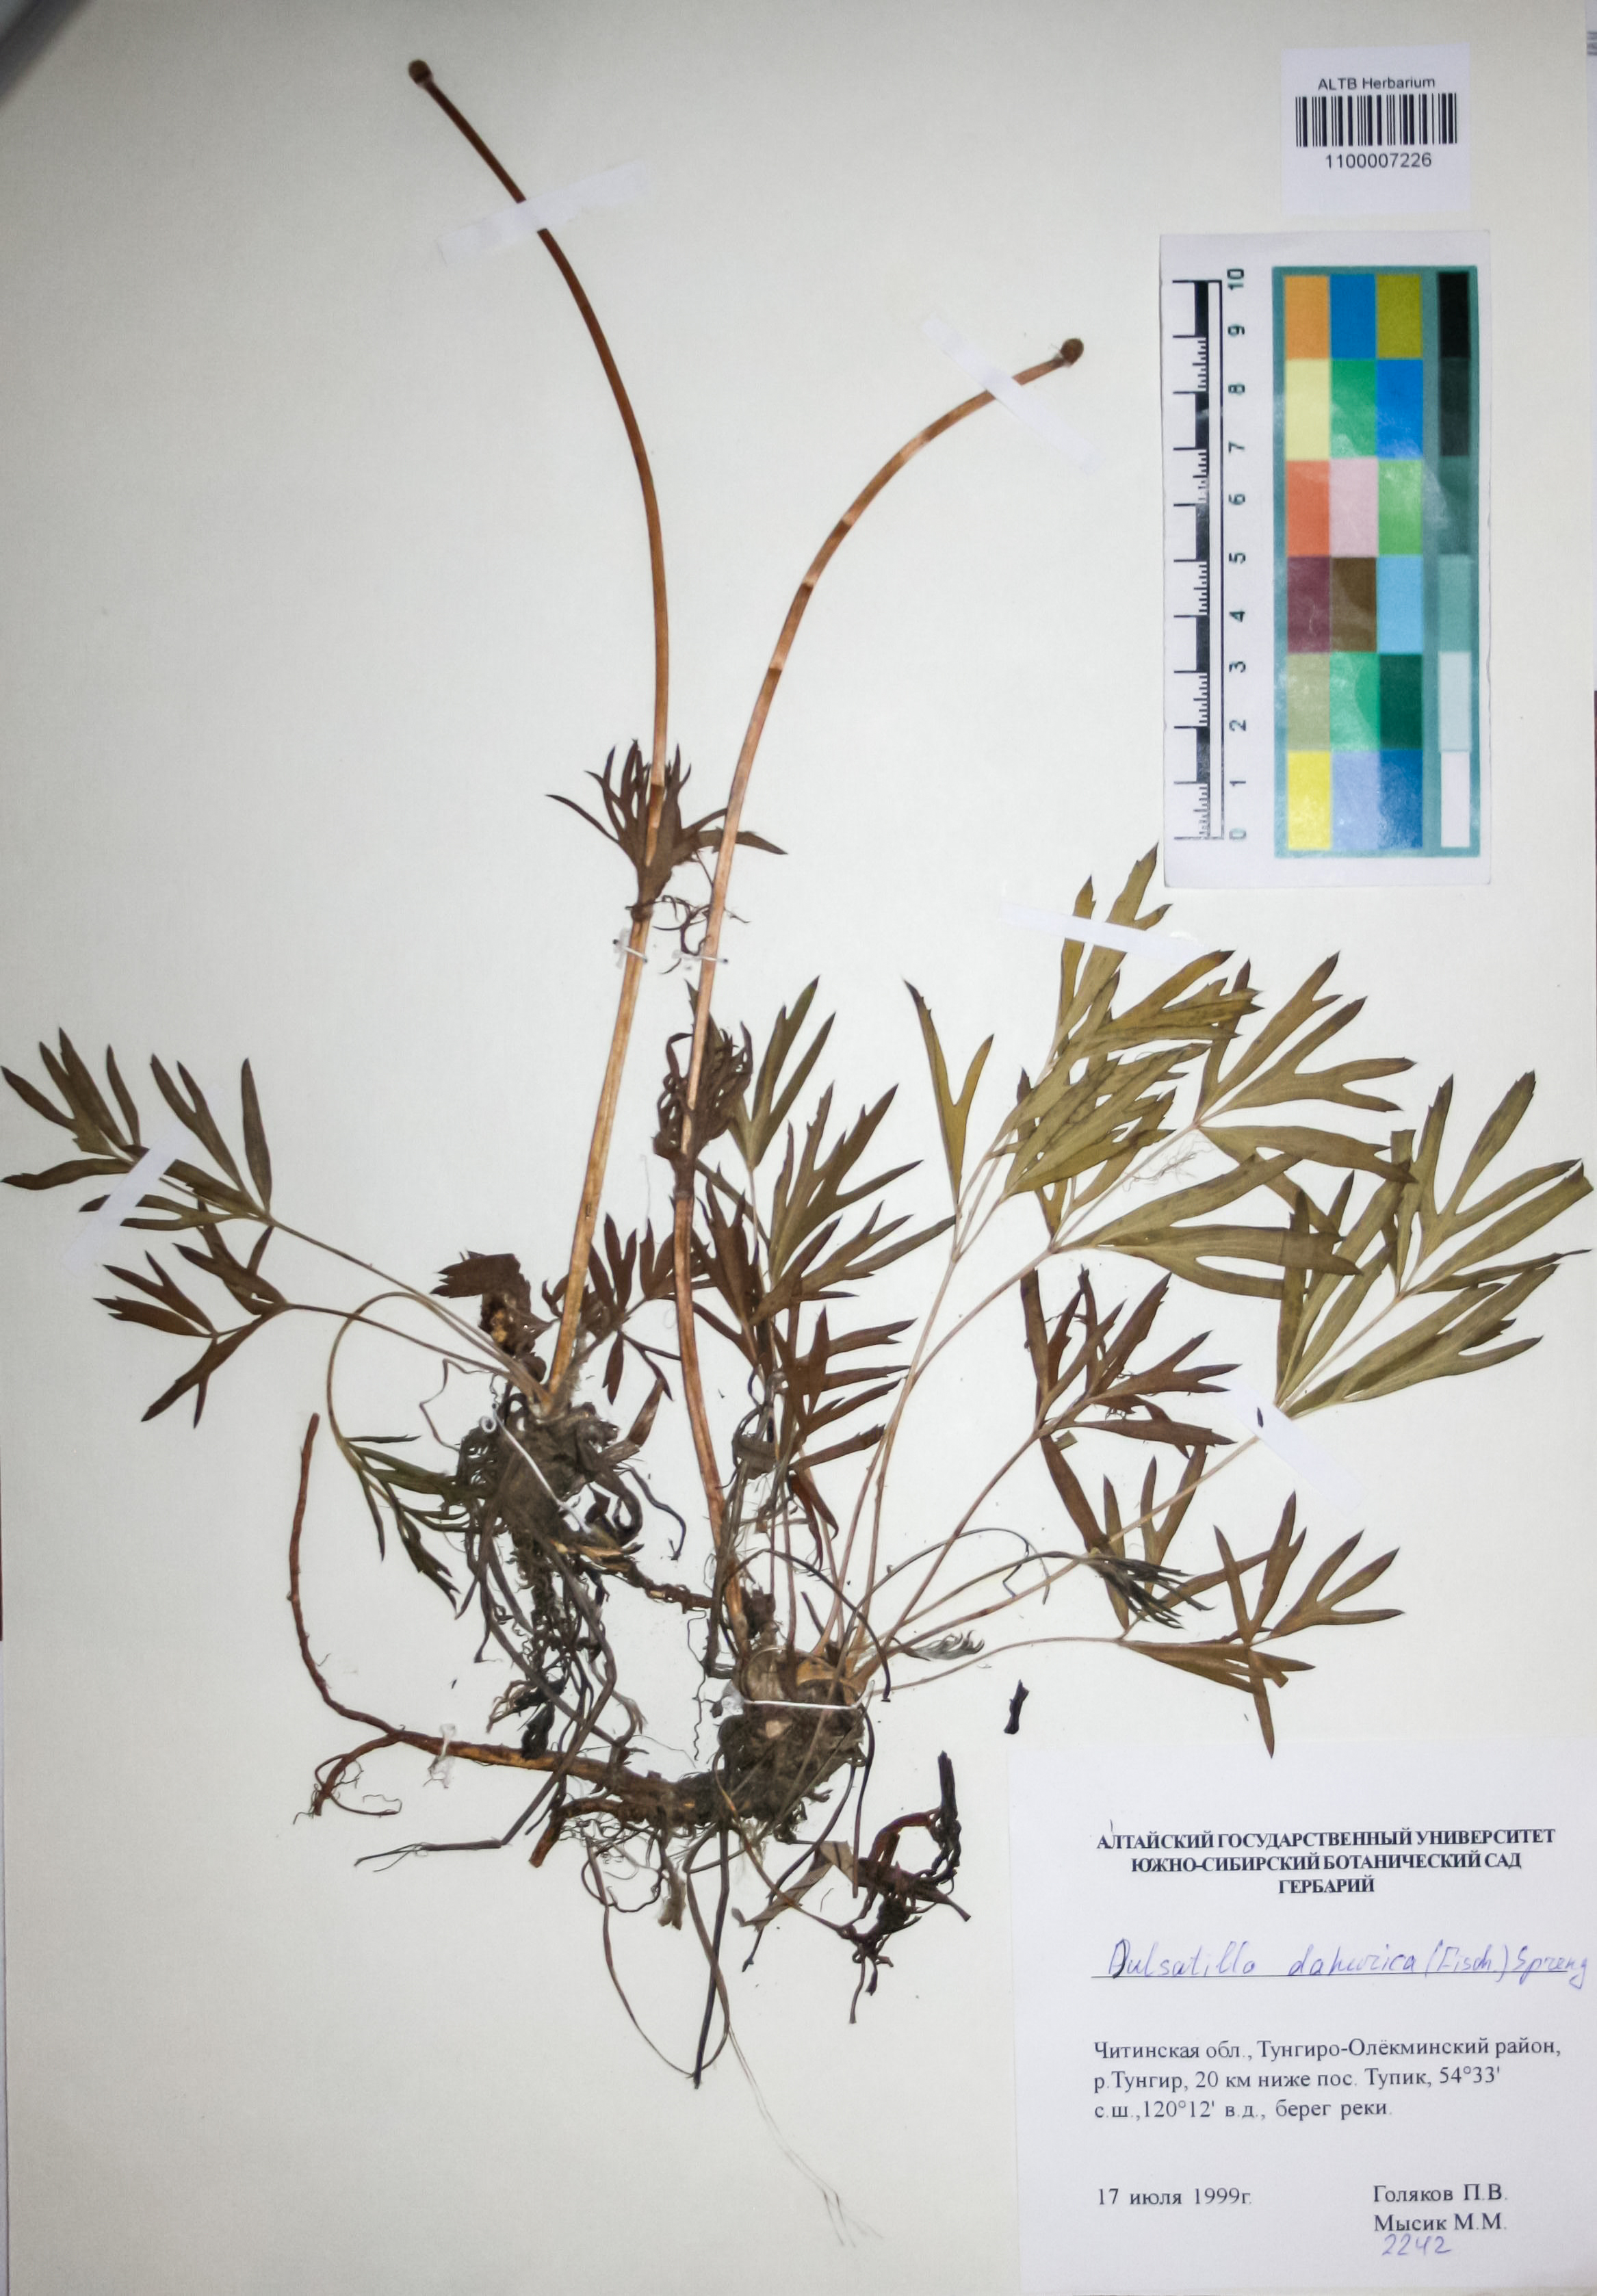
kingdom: Plantae
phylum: Tracheophyta
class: Magnoliopsida
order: Ranunculales
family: Ranunculaceae
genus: Pulsatilla
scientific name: Pulsatilla dahurica
